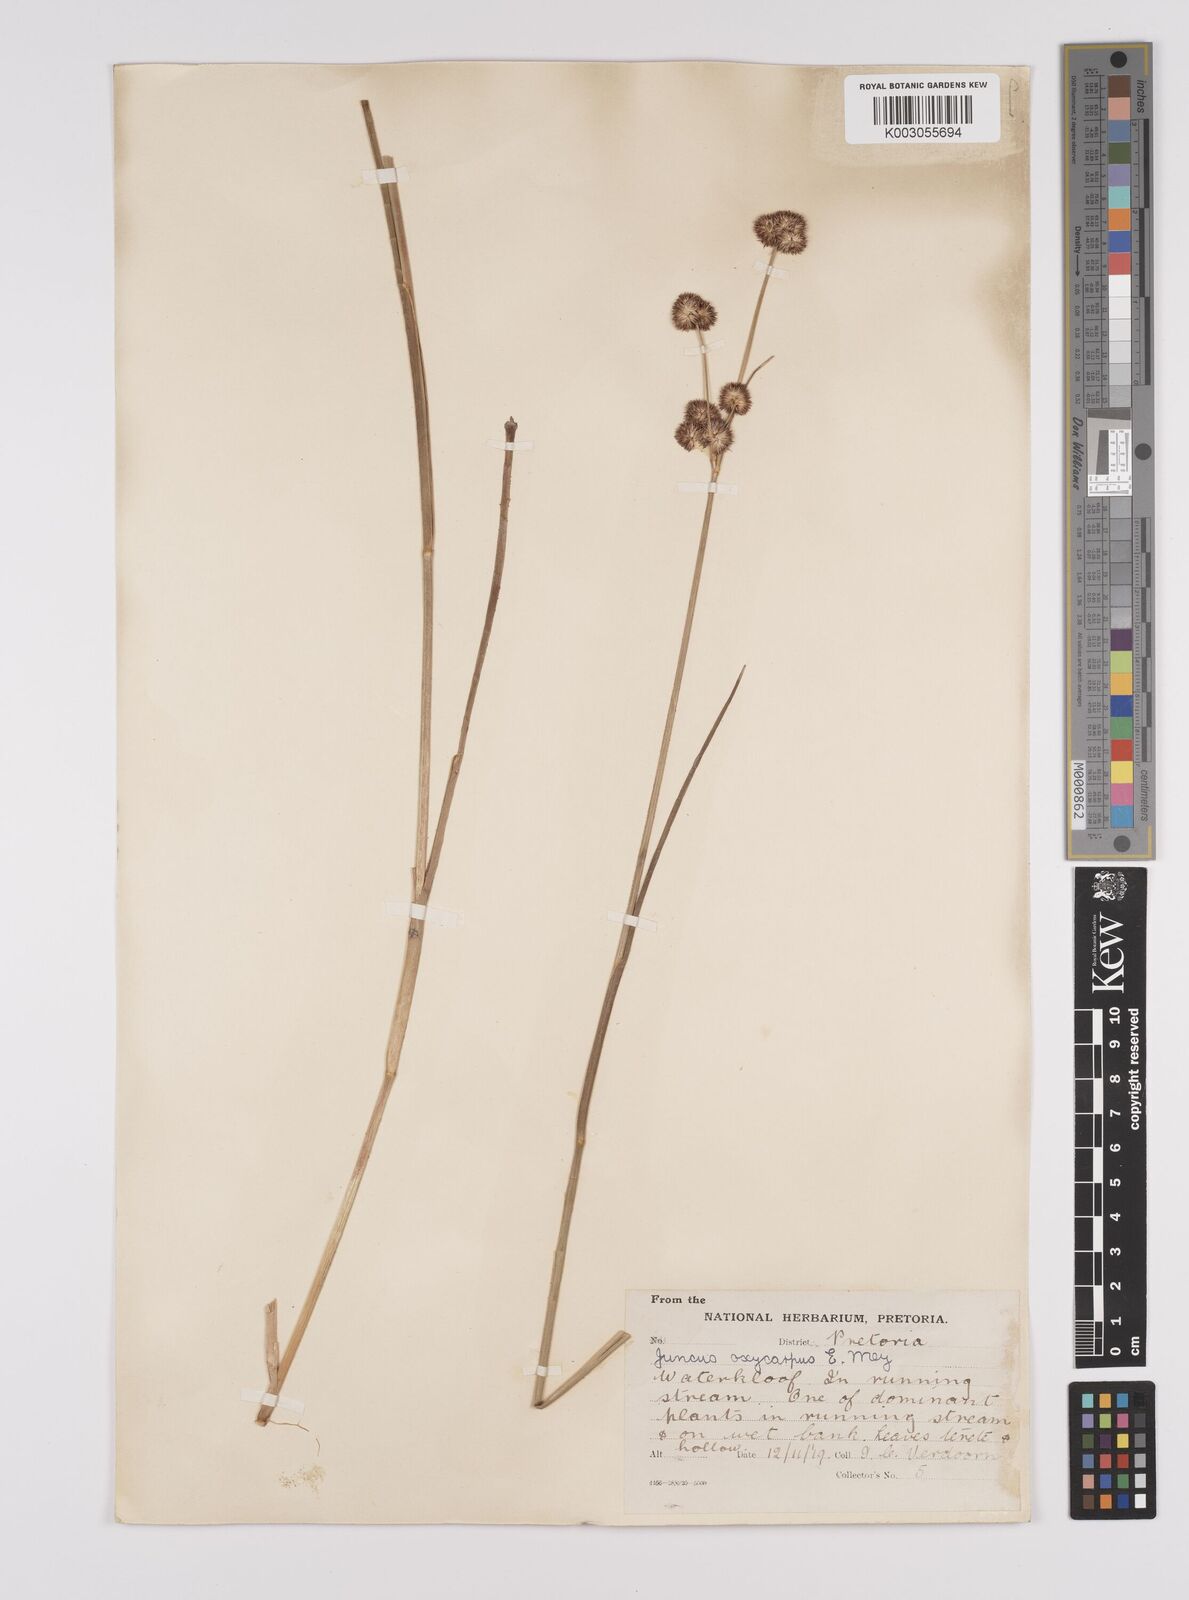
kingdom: Plantae
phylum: Tracheophyta
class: Liliopsida
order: Poales
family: Juncaceae
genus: Juncus
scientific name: Juncus oxycarpus
